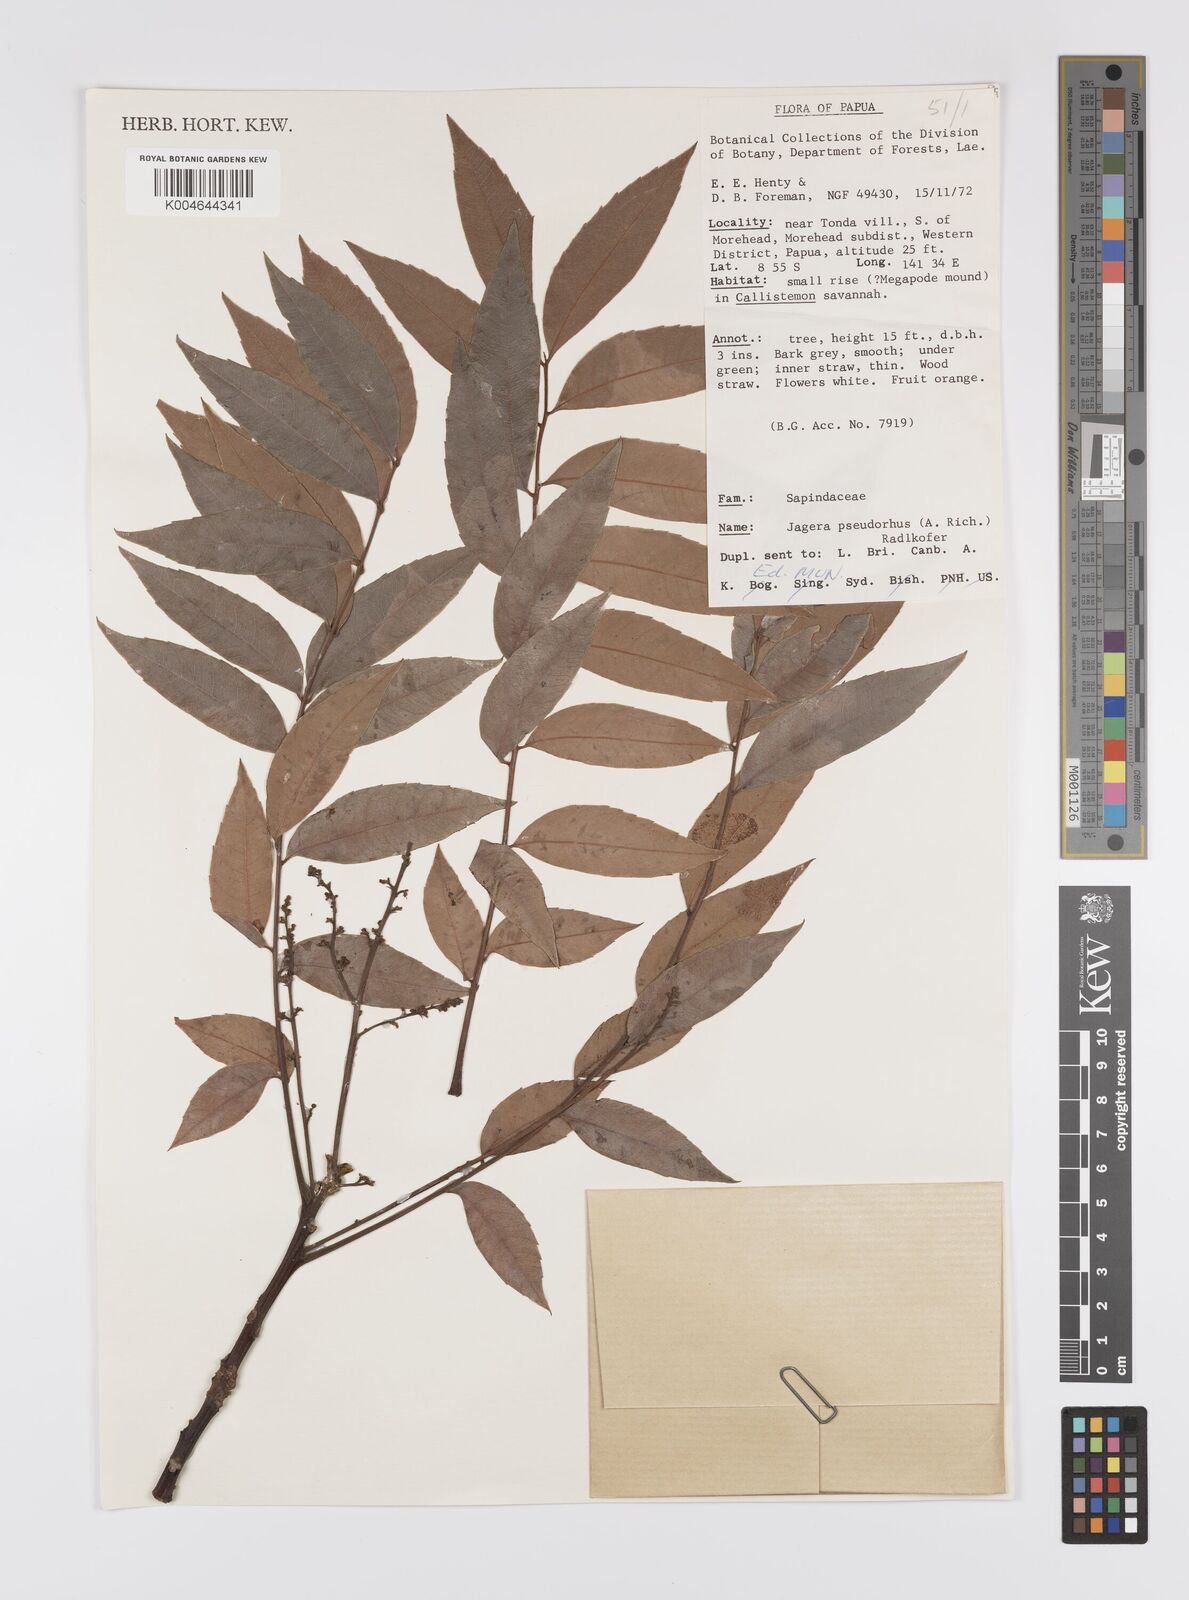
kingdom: Plantae
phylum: Tracheophyta
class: Magnoliopsida
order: Sapindales
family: Sapindaceae
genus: Jagera
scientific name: Jagera pseudorhus
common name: Fern-leaf-tamarind
